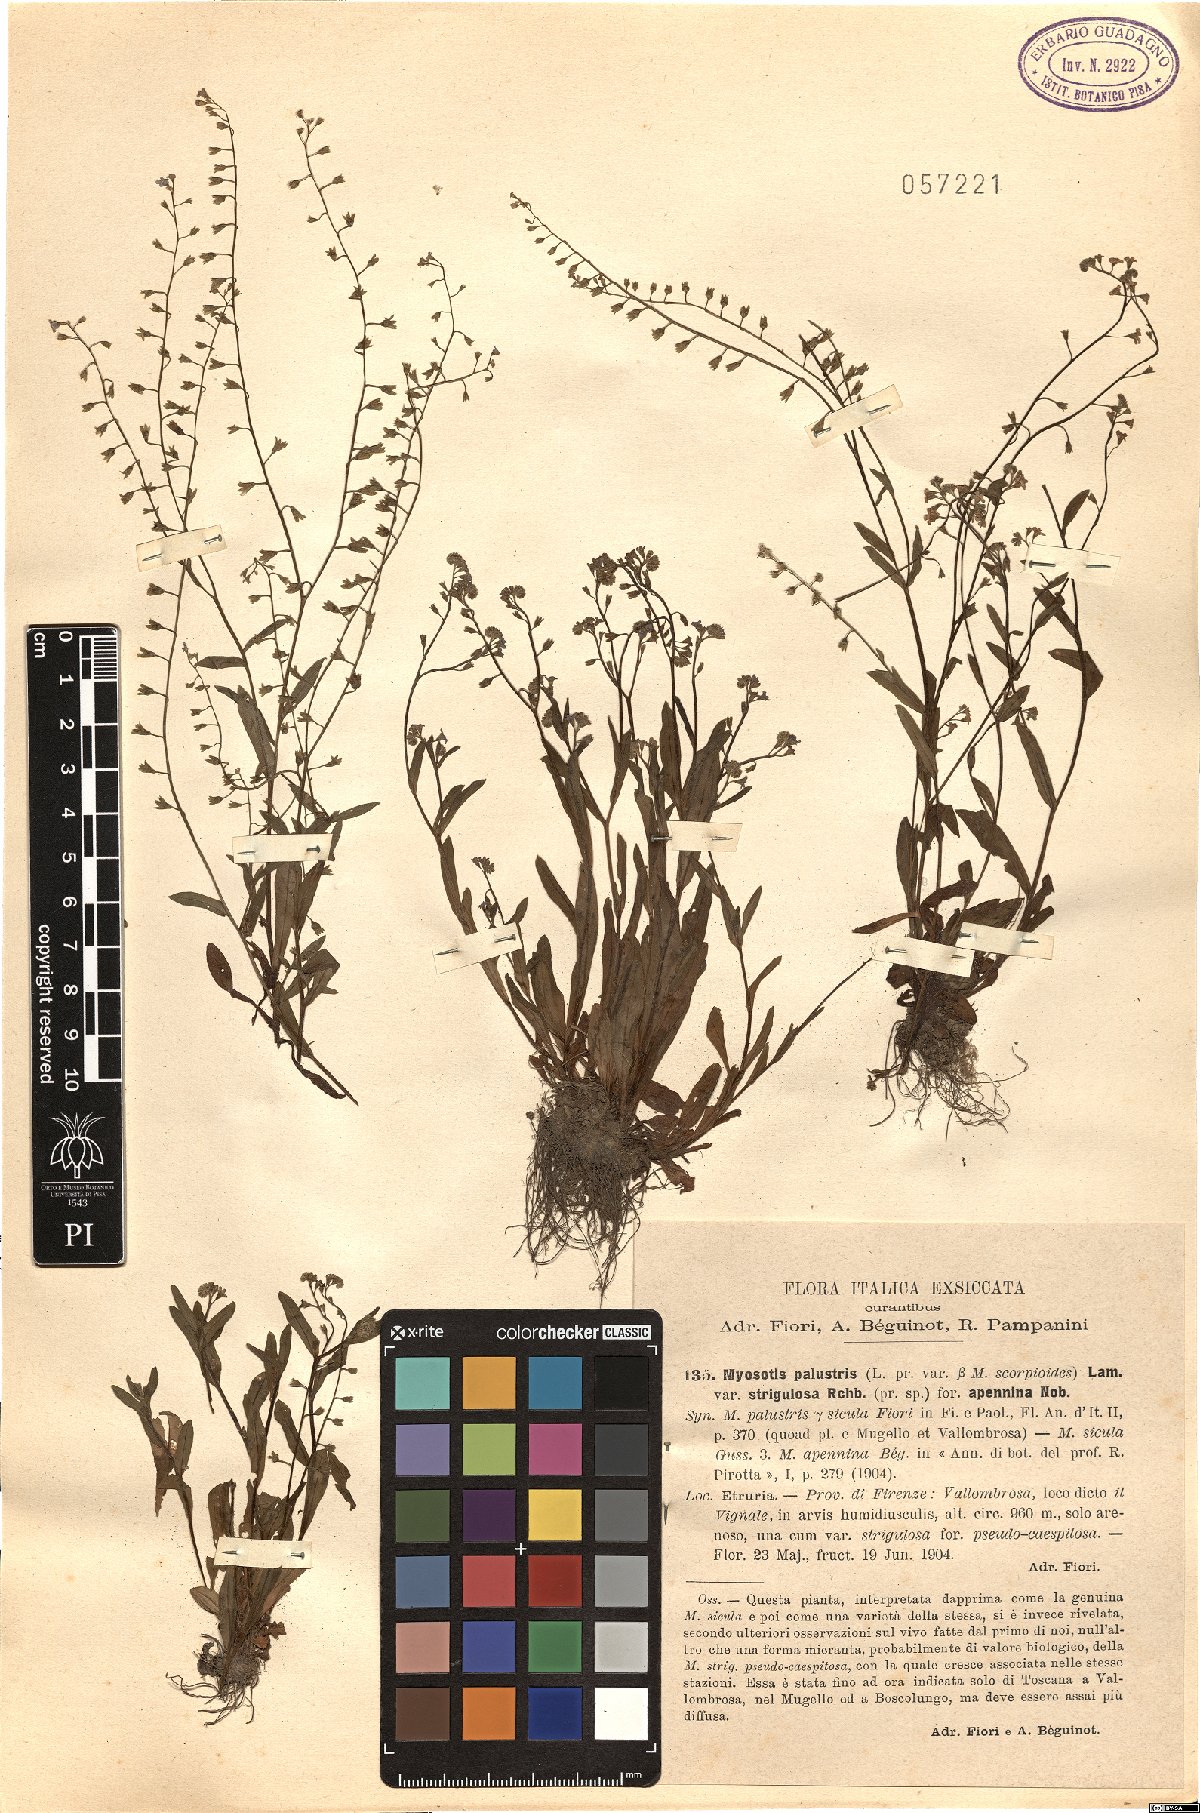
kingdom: Plantae
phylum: Tracheophyta
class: Magnoliopsida
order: Boraginales
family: Boraginaceae
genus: Myosotis
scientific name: Myosotis
